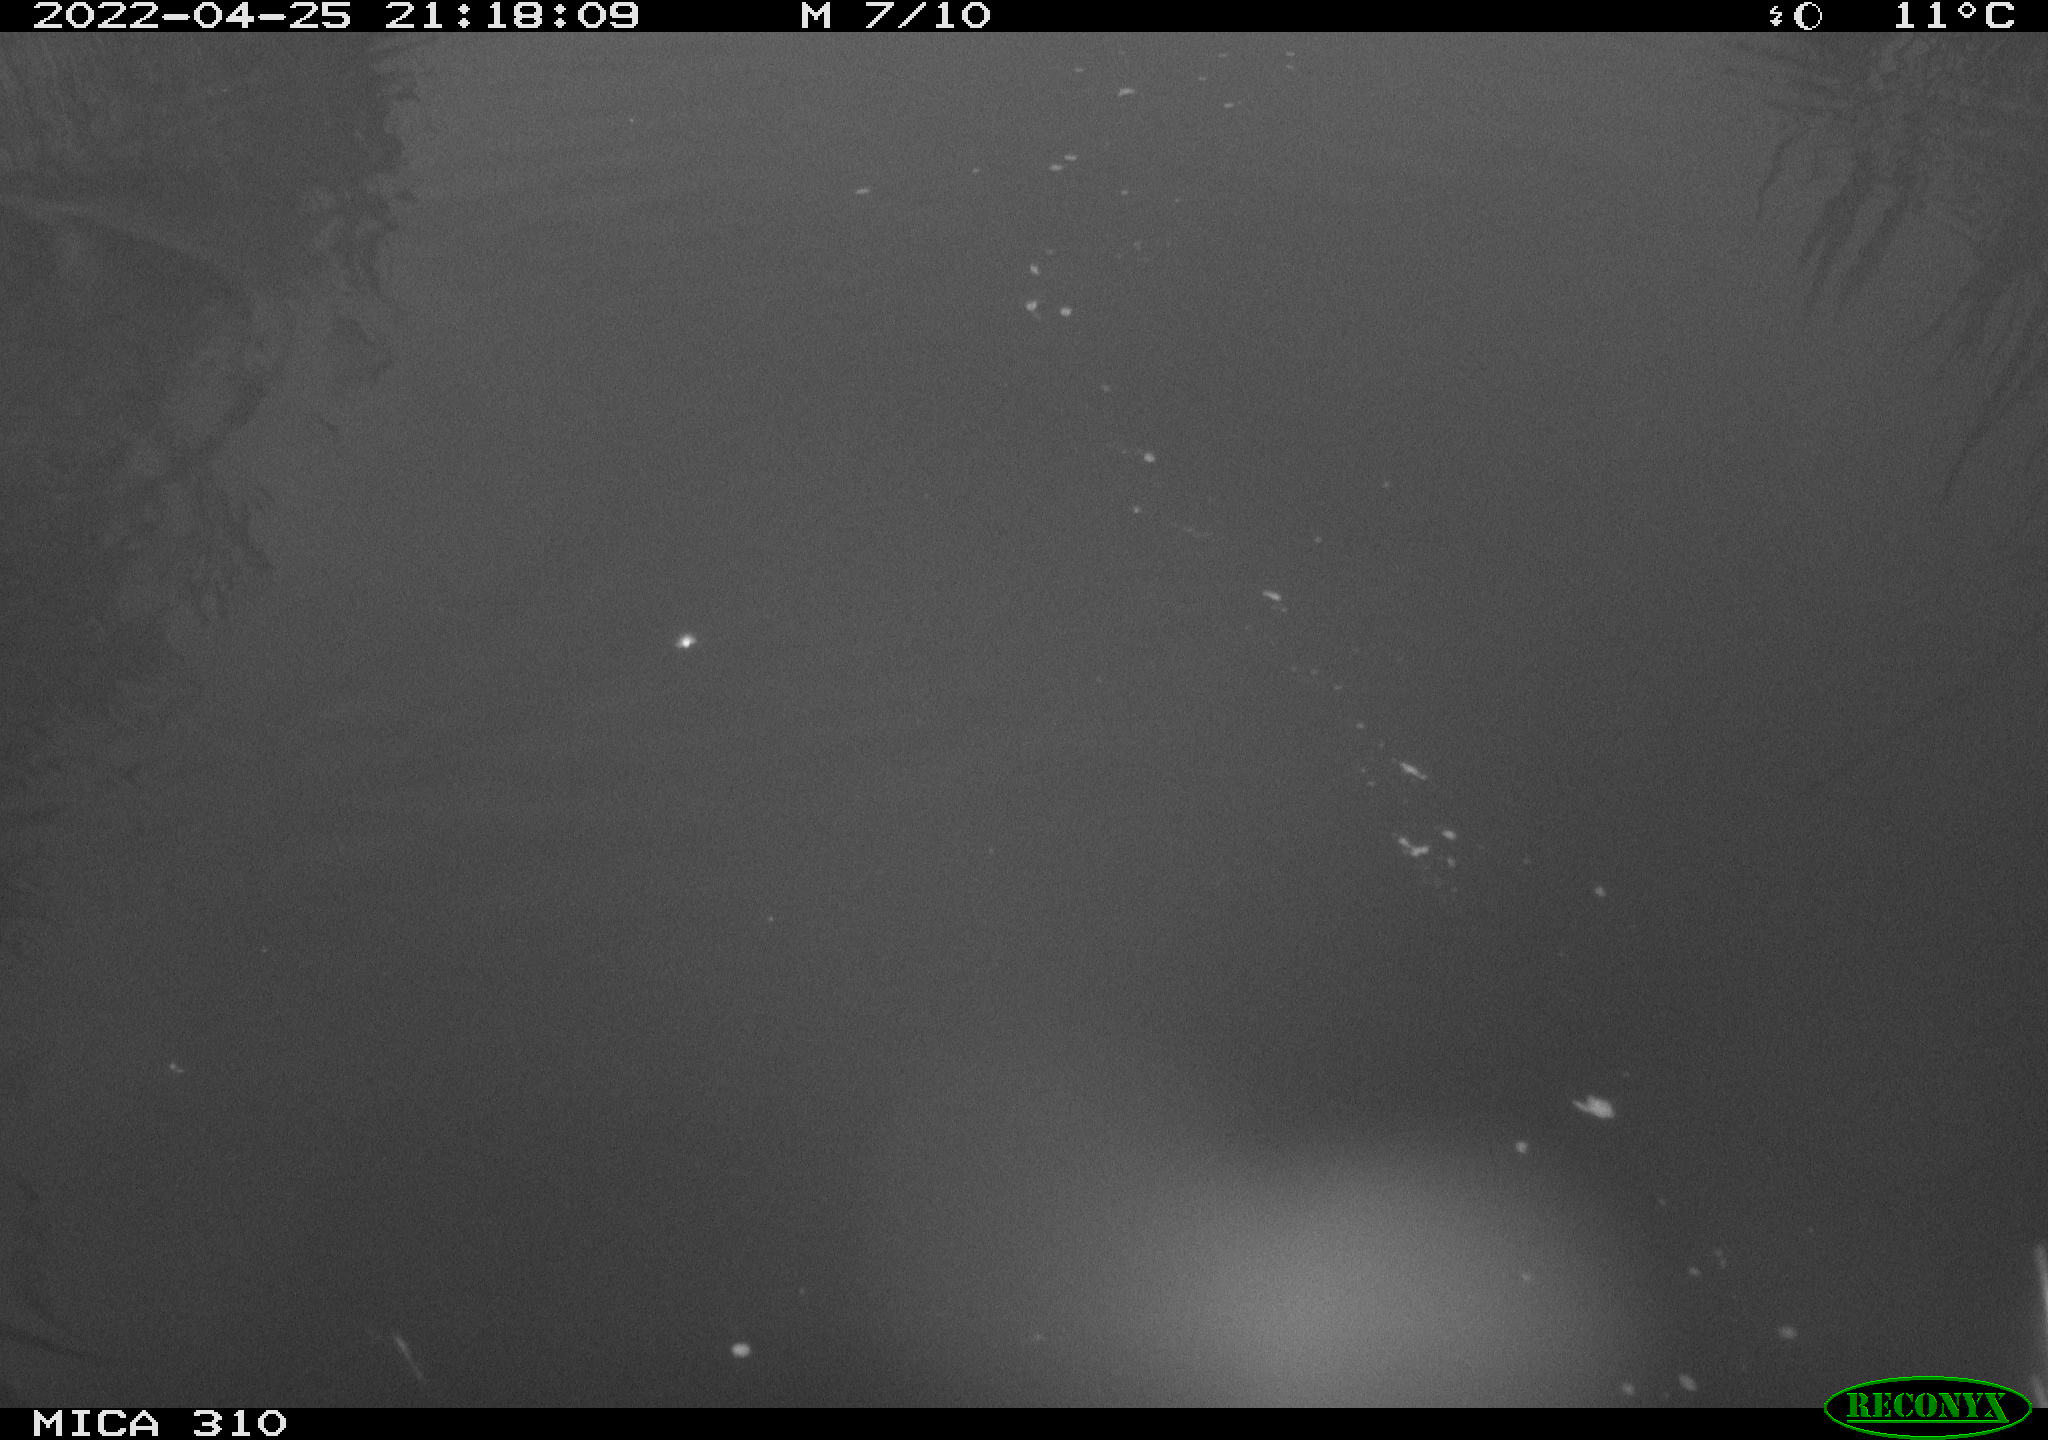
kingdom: Animalia
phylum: Chordata
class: Aves
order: Pelecaniformes
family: Ardeidae
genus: Ardea
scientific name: Ardea
